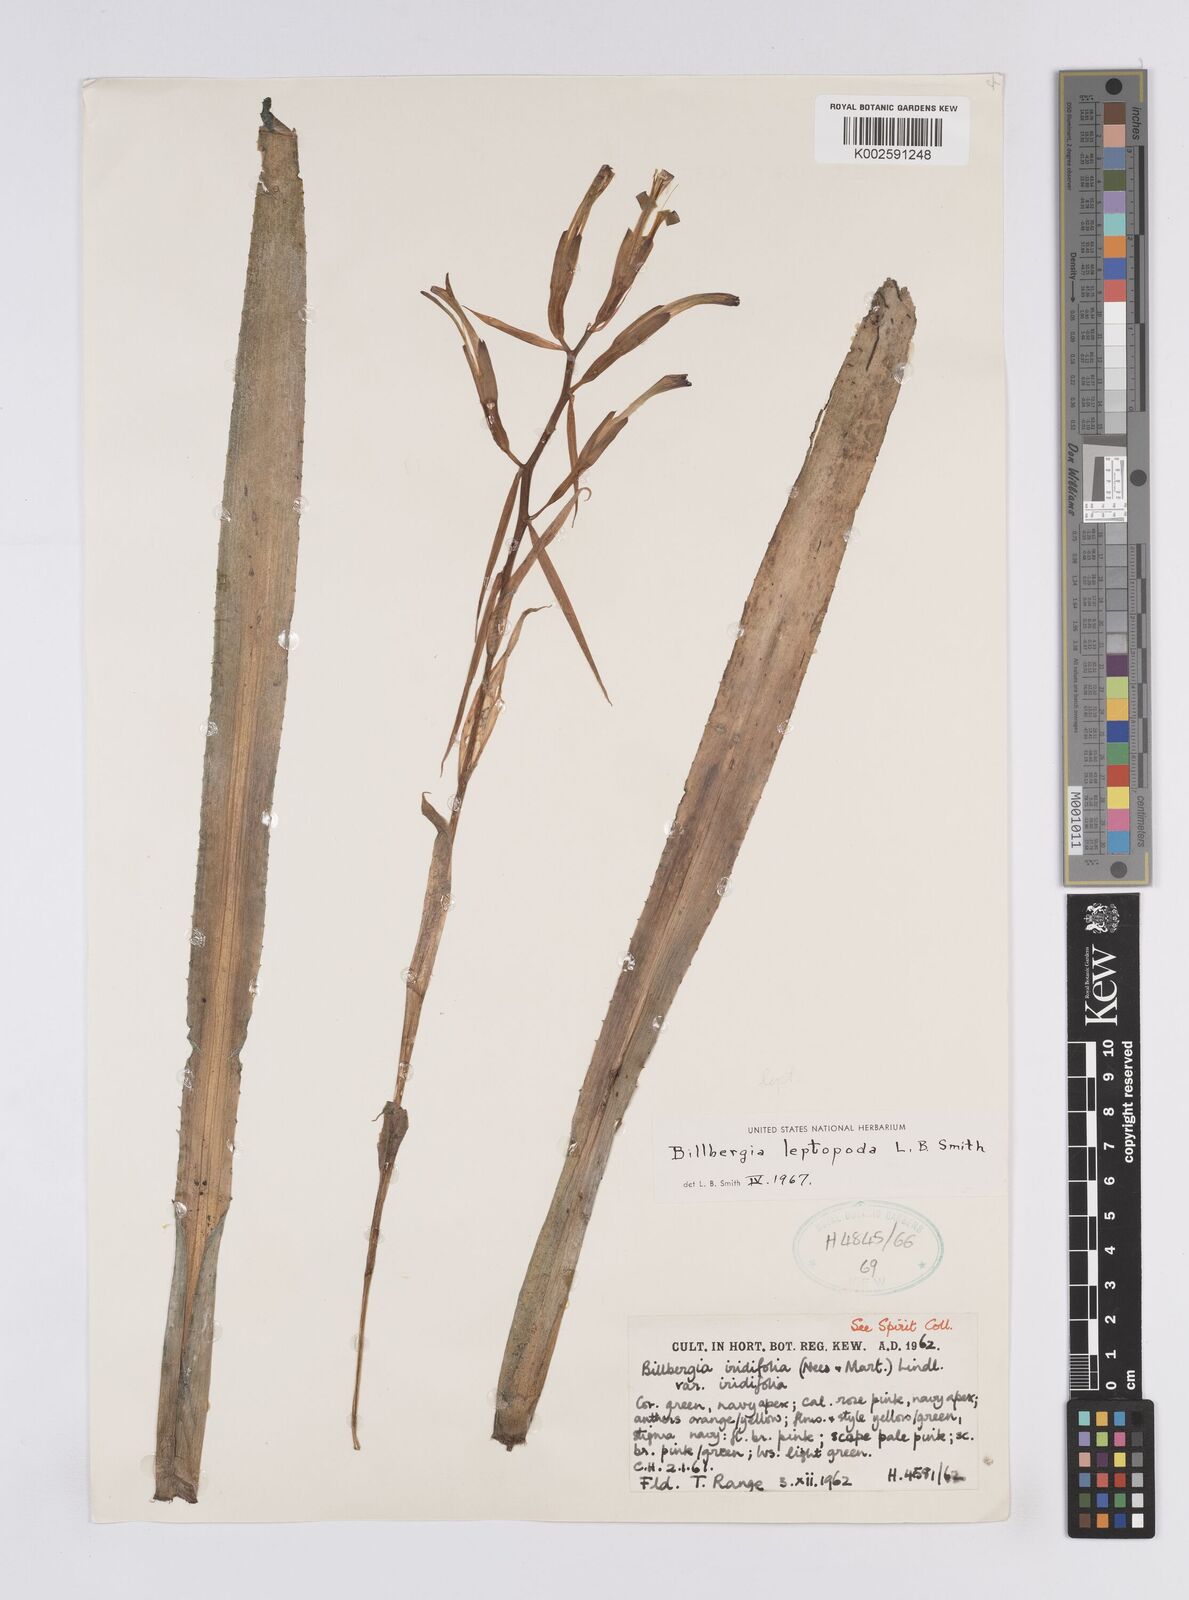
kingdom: Plantae
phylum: Tracheophyta
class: Liliopsida
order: Poales
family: Bromeliaceae
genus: Billbergia
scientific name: Billbergia leptopoda
